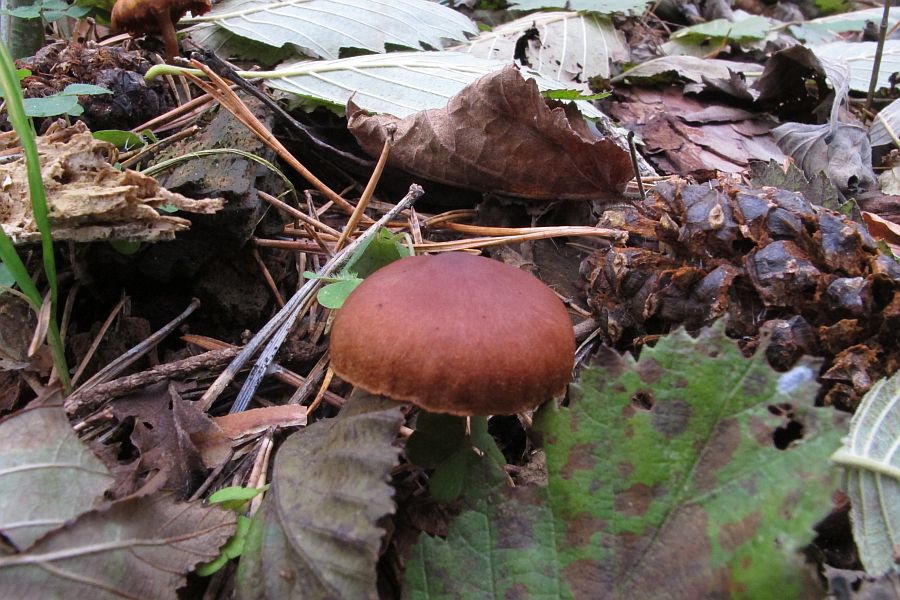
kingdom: Fungi
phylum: Basidiomycota
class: Agaricomycetes
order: Agaricales
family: Cortinariaceae
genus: Cortinarius
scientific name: Cortinarius cinnamomeus
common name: kanel-slørhat
